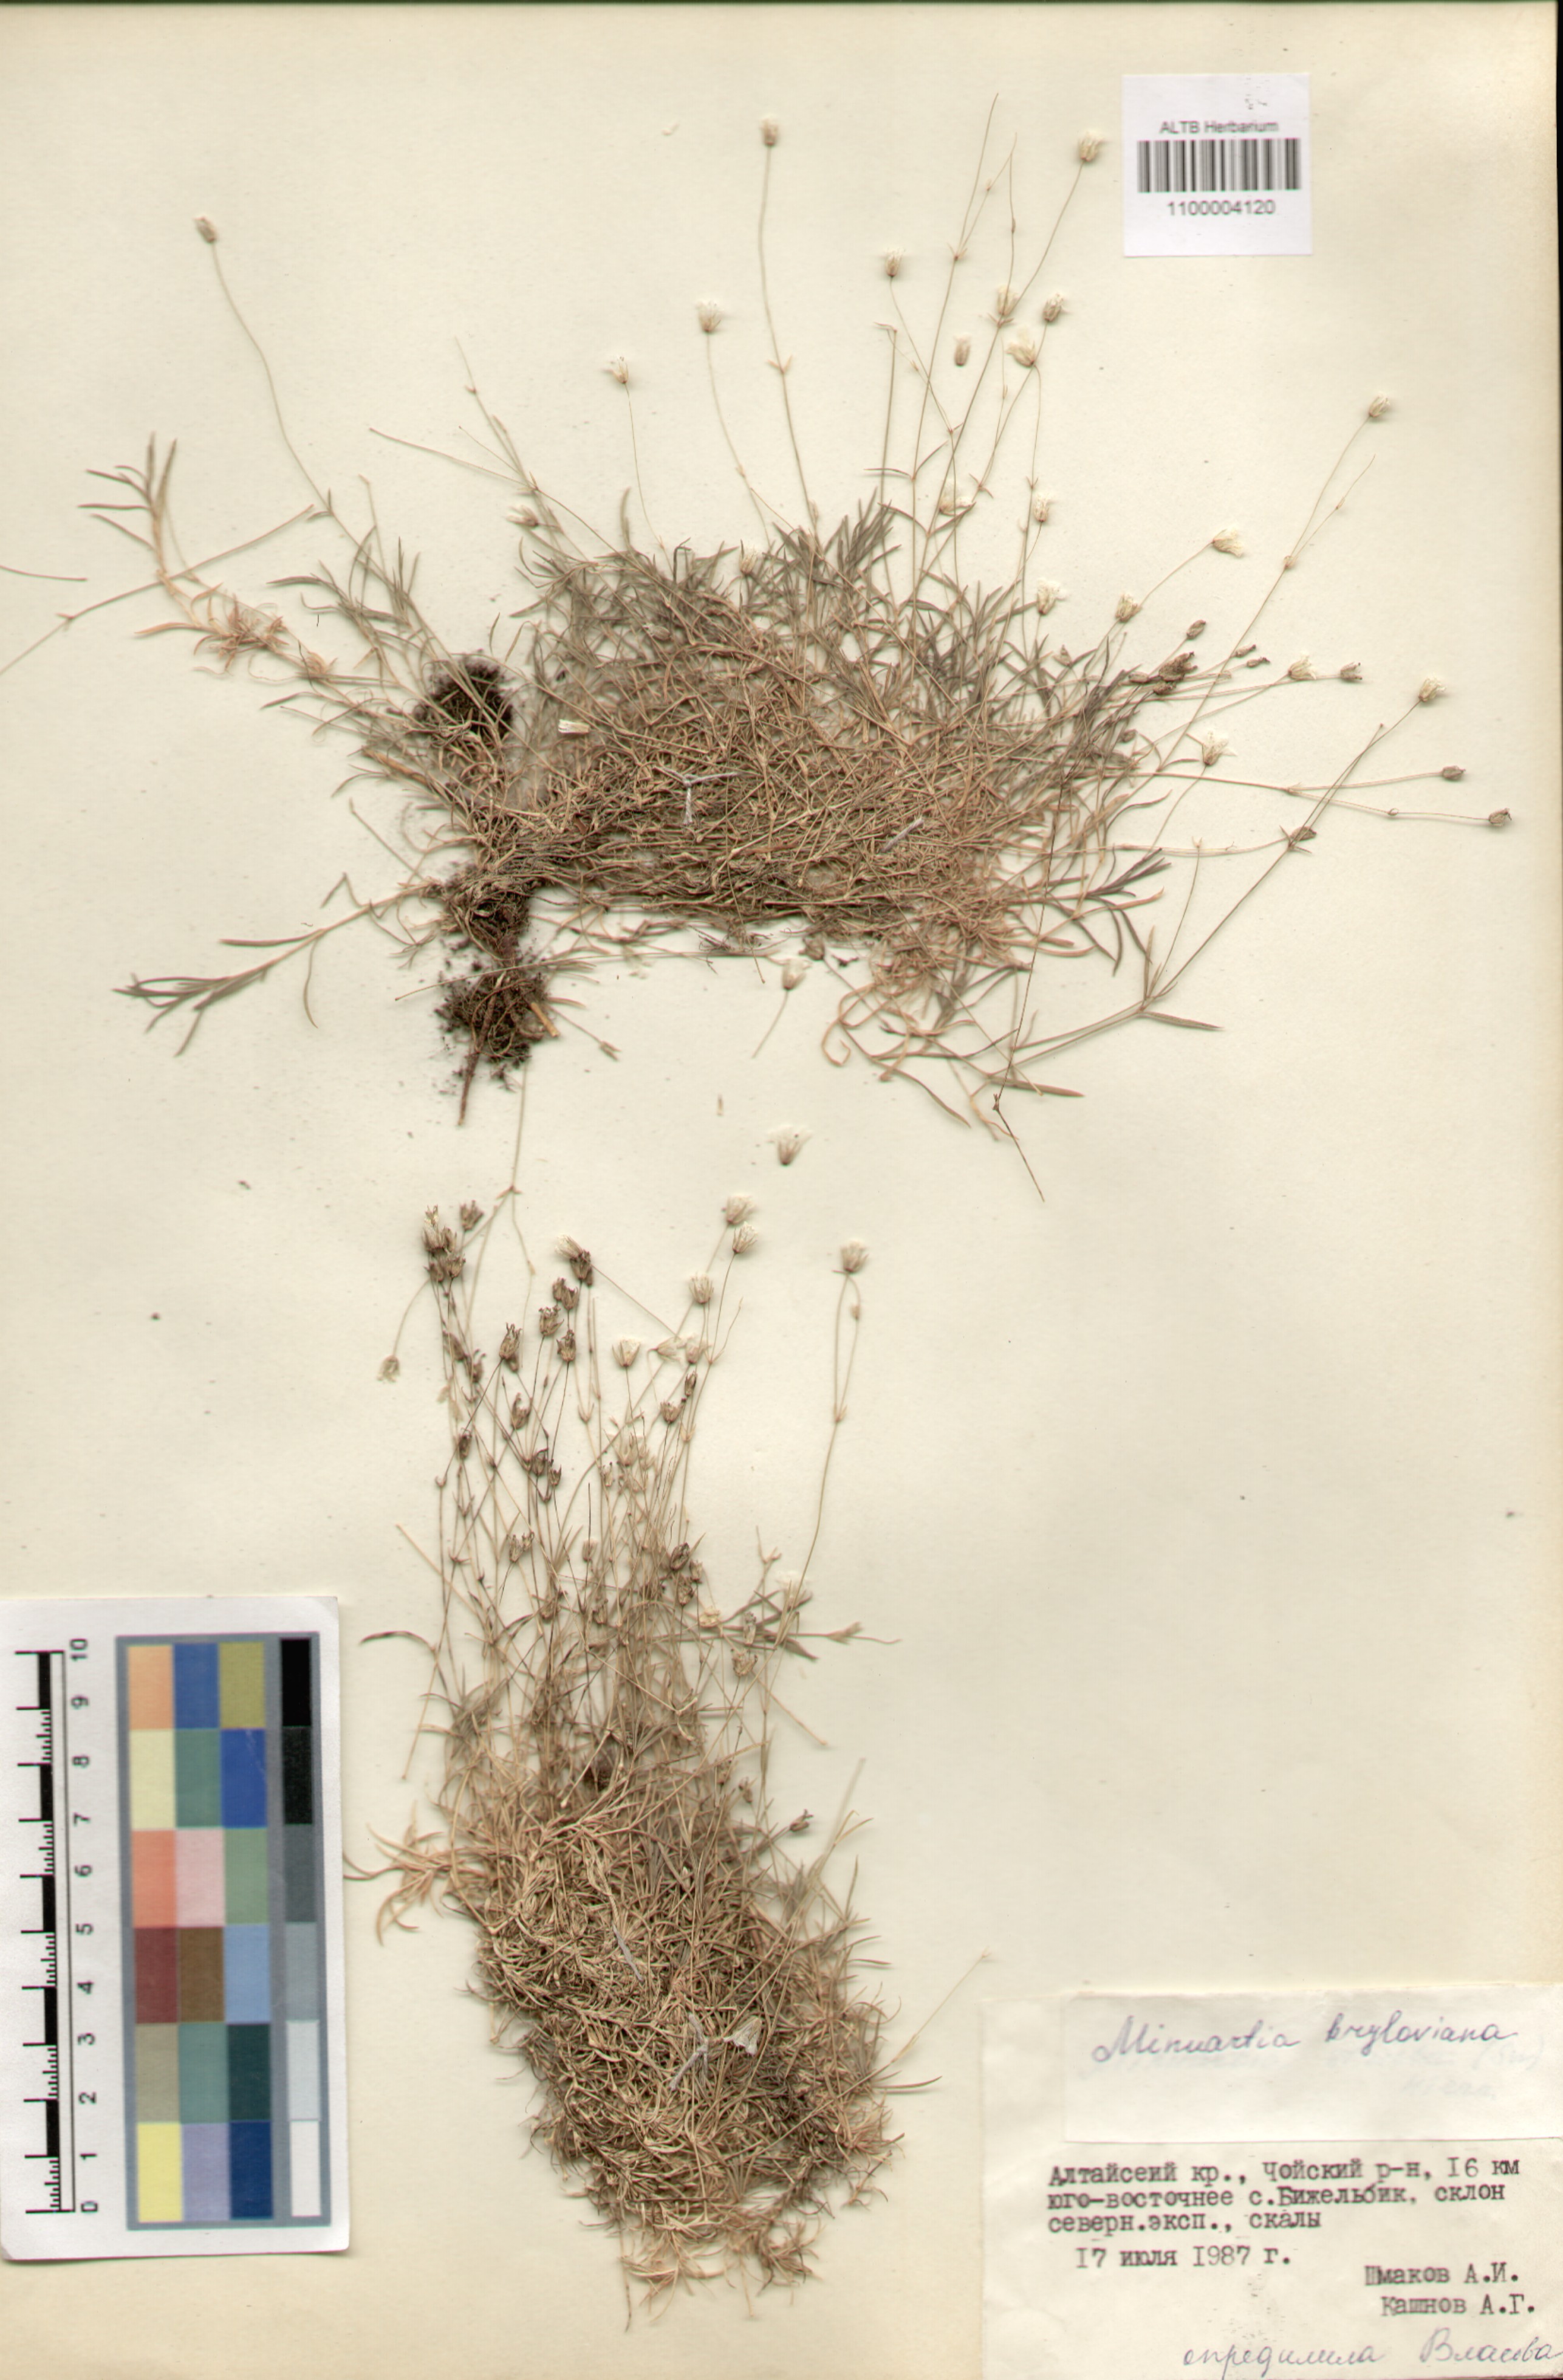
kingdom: Plantae
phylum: Tracheophyta
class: Magnoliopsida
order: Caryophyllales
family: Caryophyllaceae
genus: Sabulina
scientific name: Sabulina verna
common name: Spring sandwort
